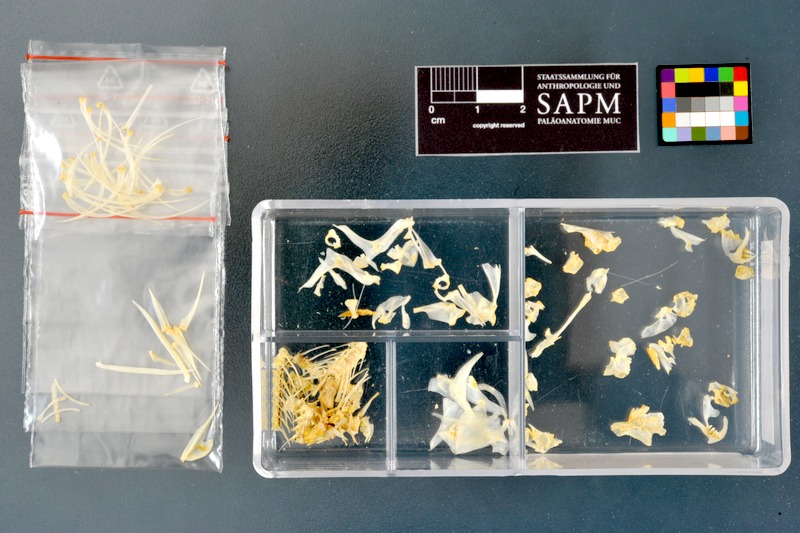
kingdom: Animalia
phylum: Chordata
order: Cypriniformes
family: Cyprinidae
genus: Acanthobrama
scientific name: Acanthobrama marmid
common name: Mesopotamian bream
